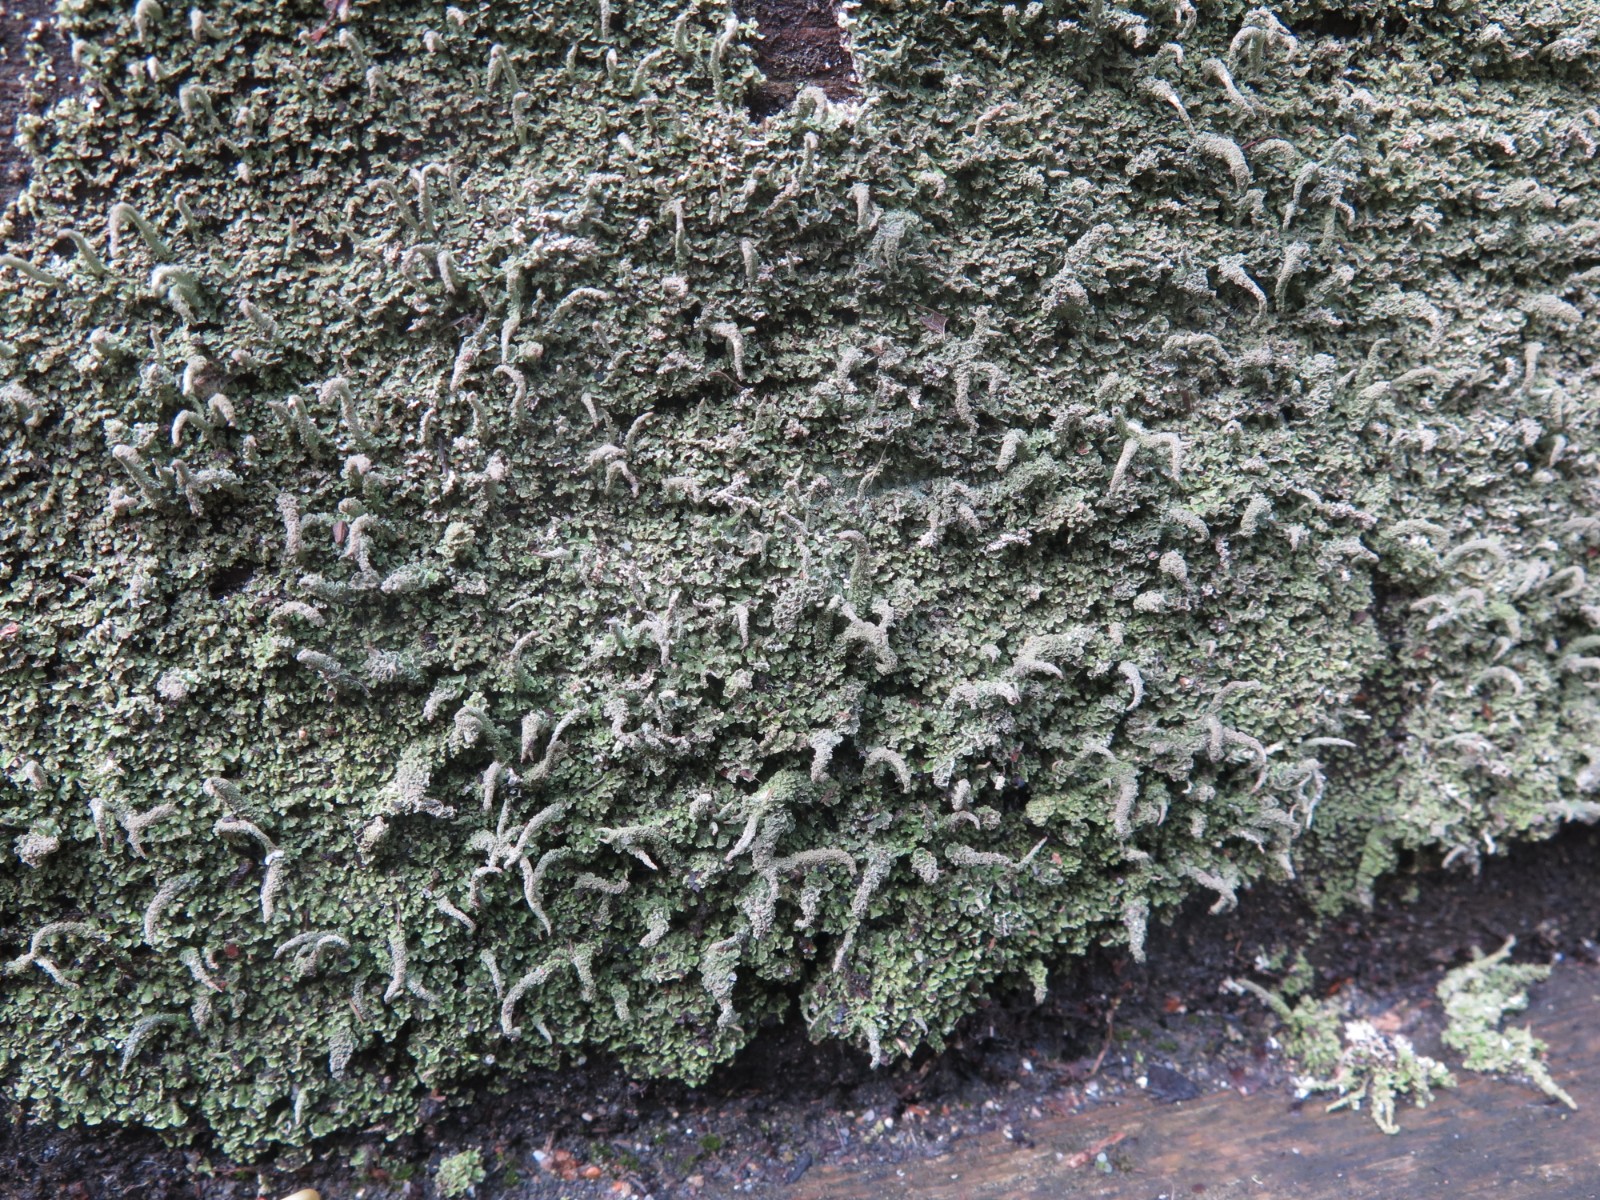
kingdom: Fungi
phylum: Ascomycota
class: Lecanoromycetes
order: Lecanorales
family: Cladoniaceae
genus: Cladonia
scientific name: Cladonia coniocraea
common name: træfods-bægerlav
